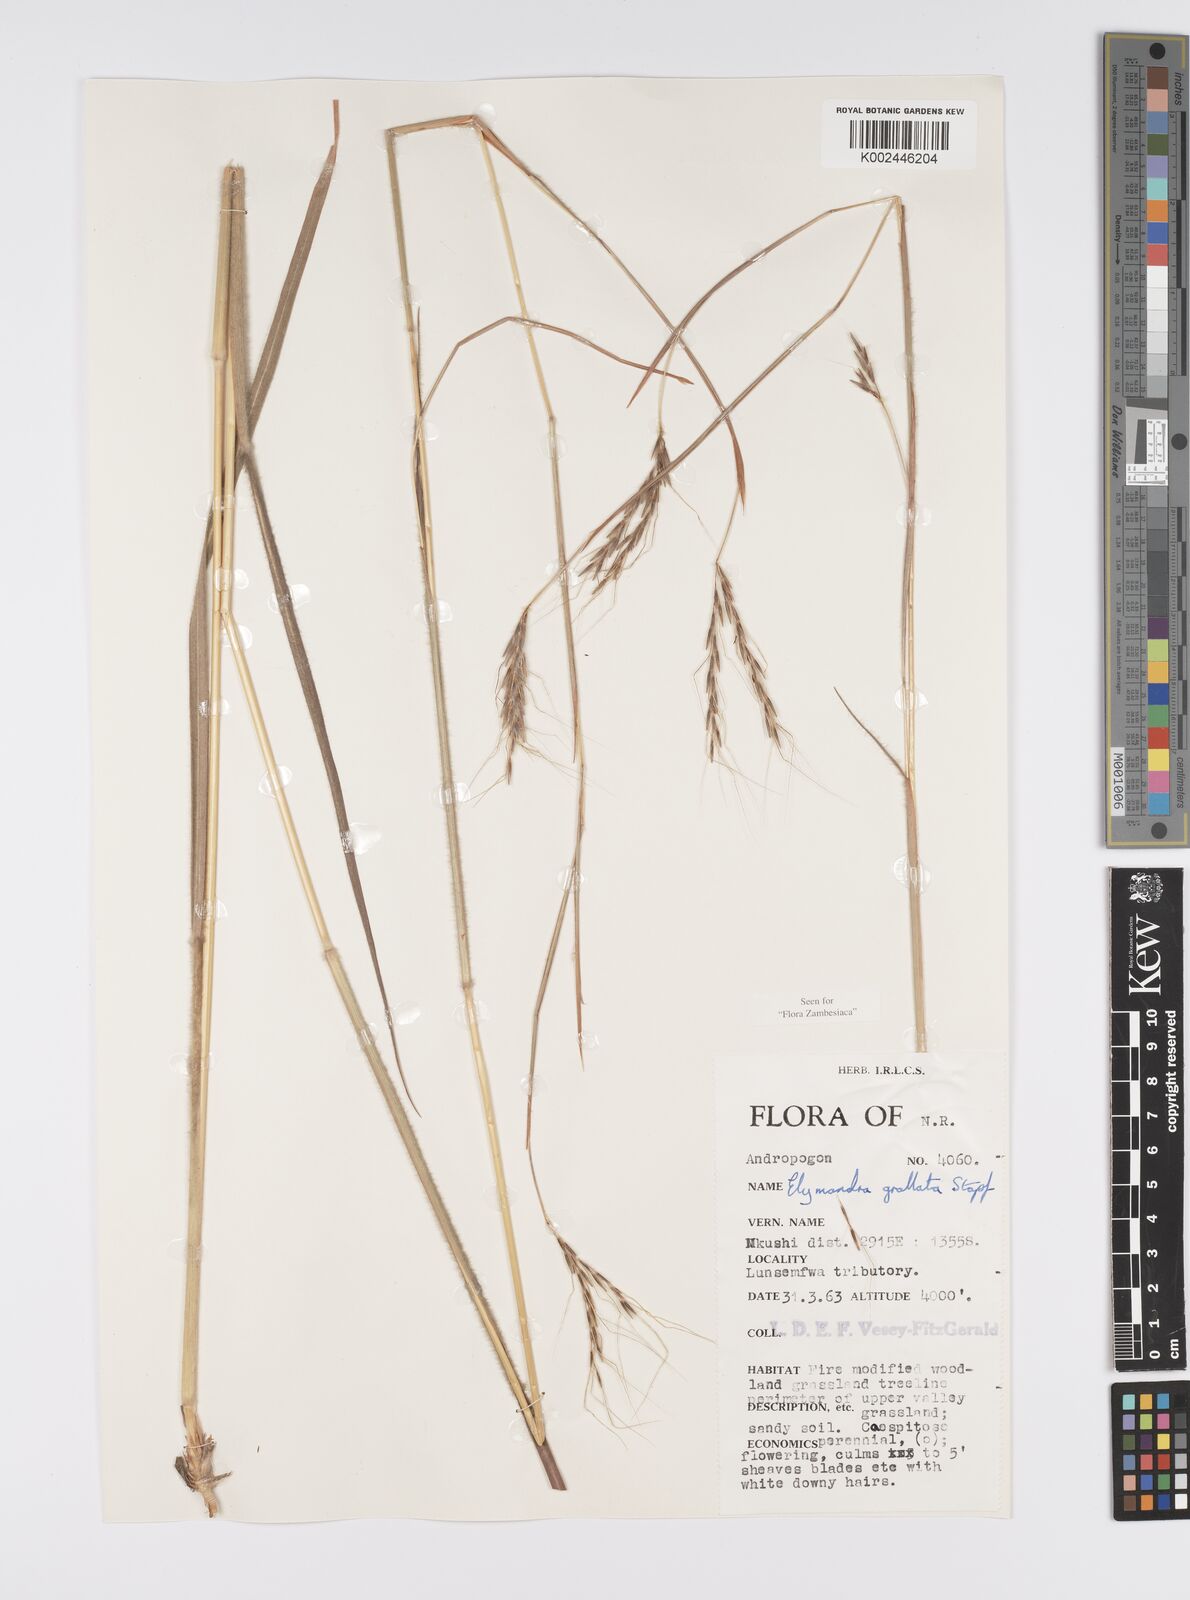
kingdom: Plantae
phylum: Tracheophyta
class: Liliopsida
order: Poales
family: Poaceae
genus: Elymandra
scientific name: Elymandra grallata
